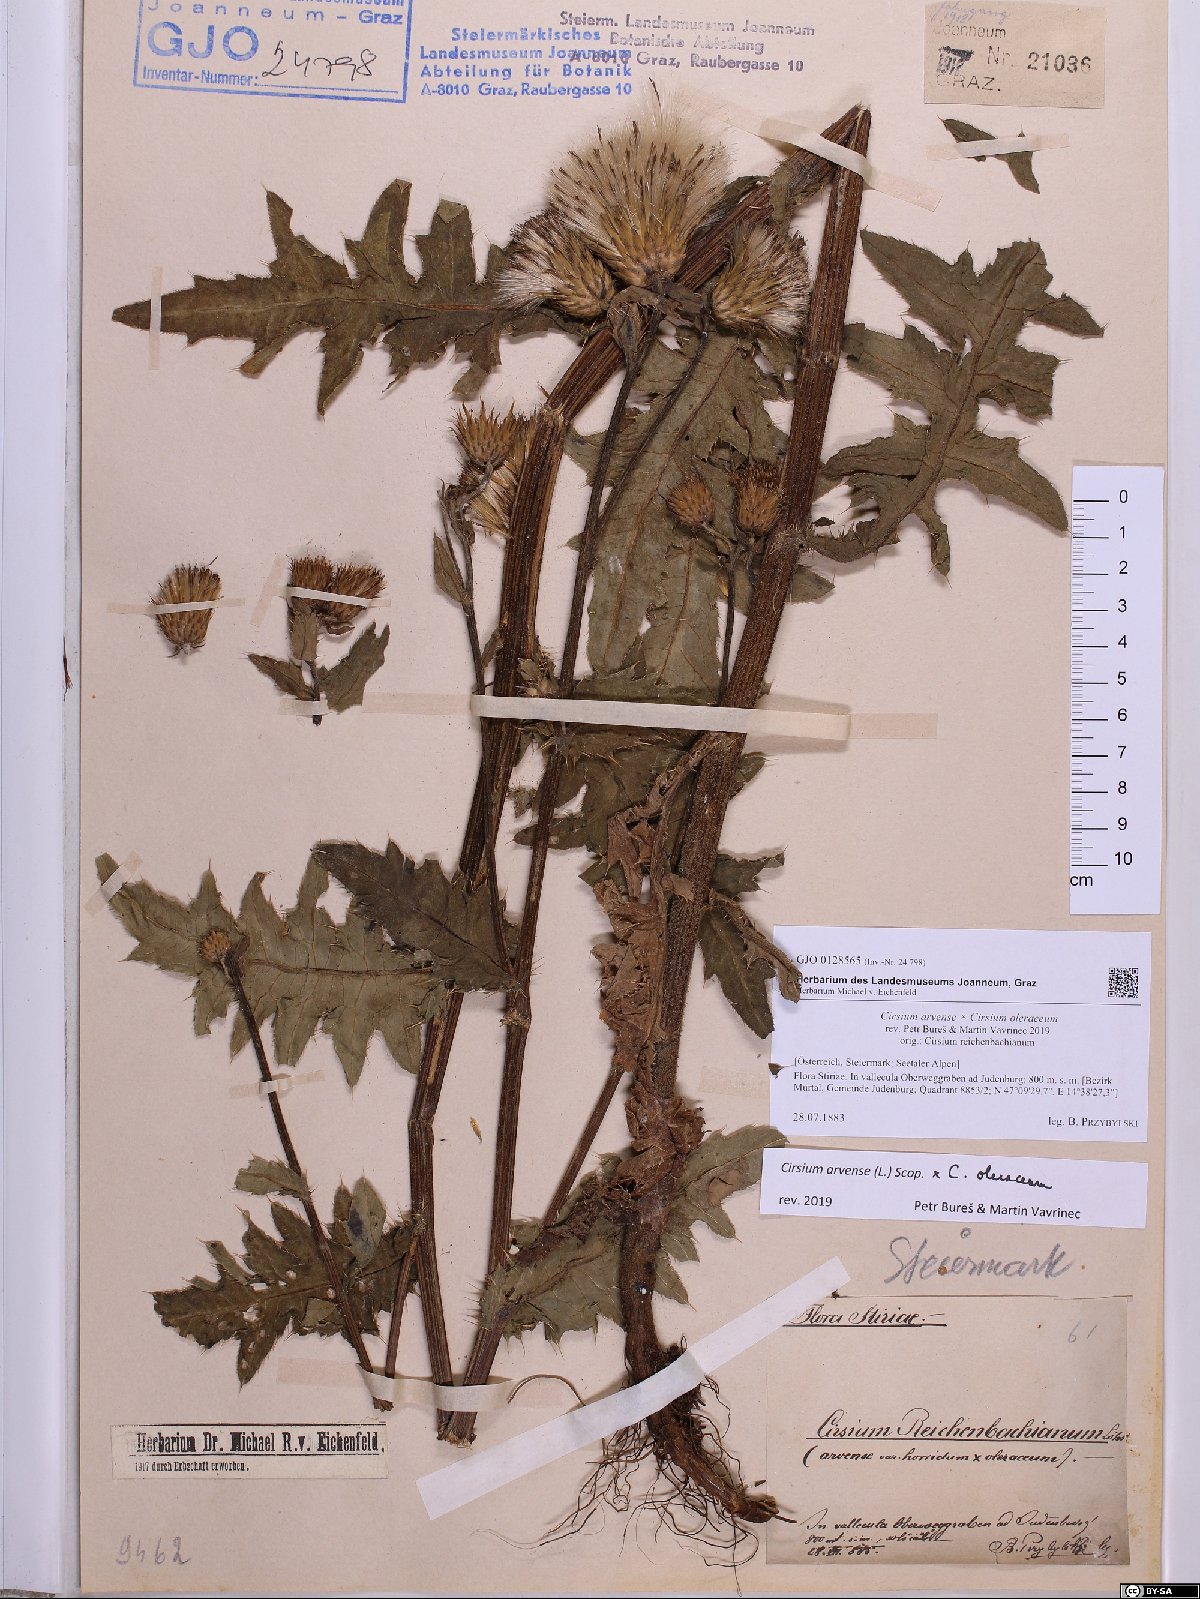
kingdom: Plantae
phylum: Tracheophyta
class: Magnoliopsida
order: Asterales
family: Asteraceae
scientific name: Asteraceae
